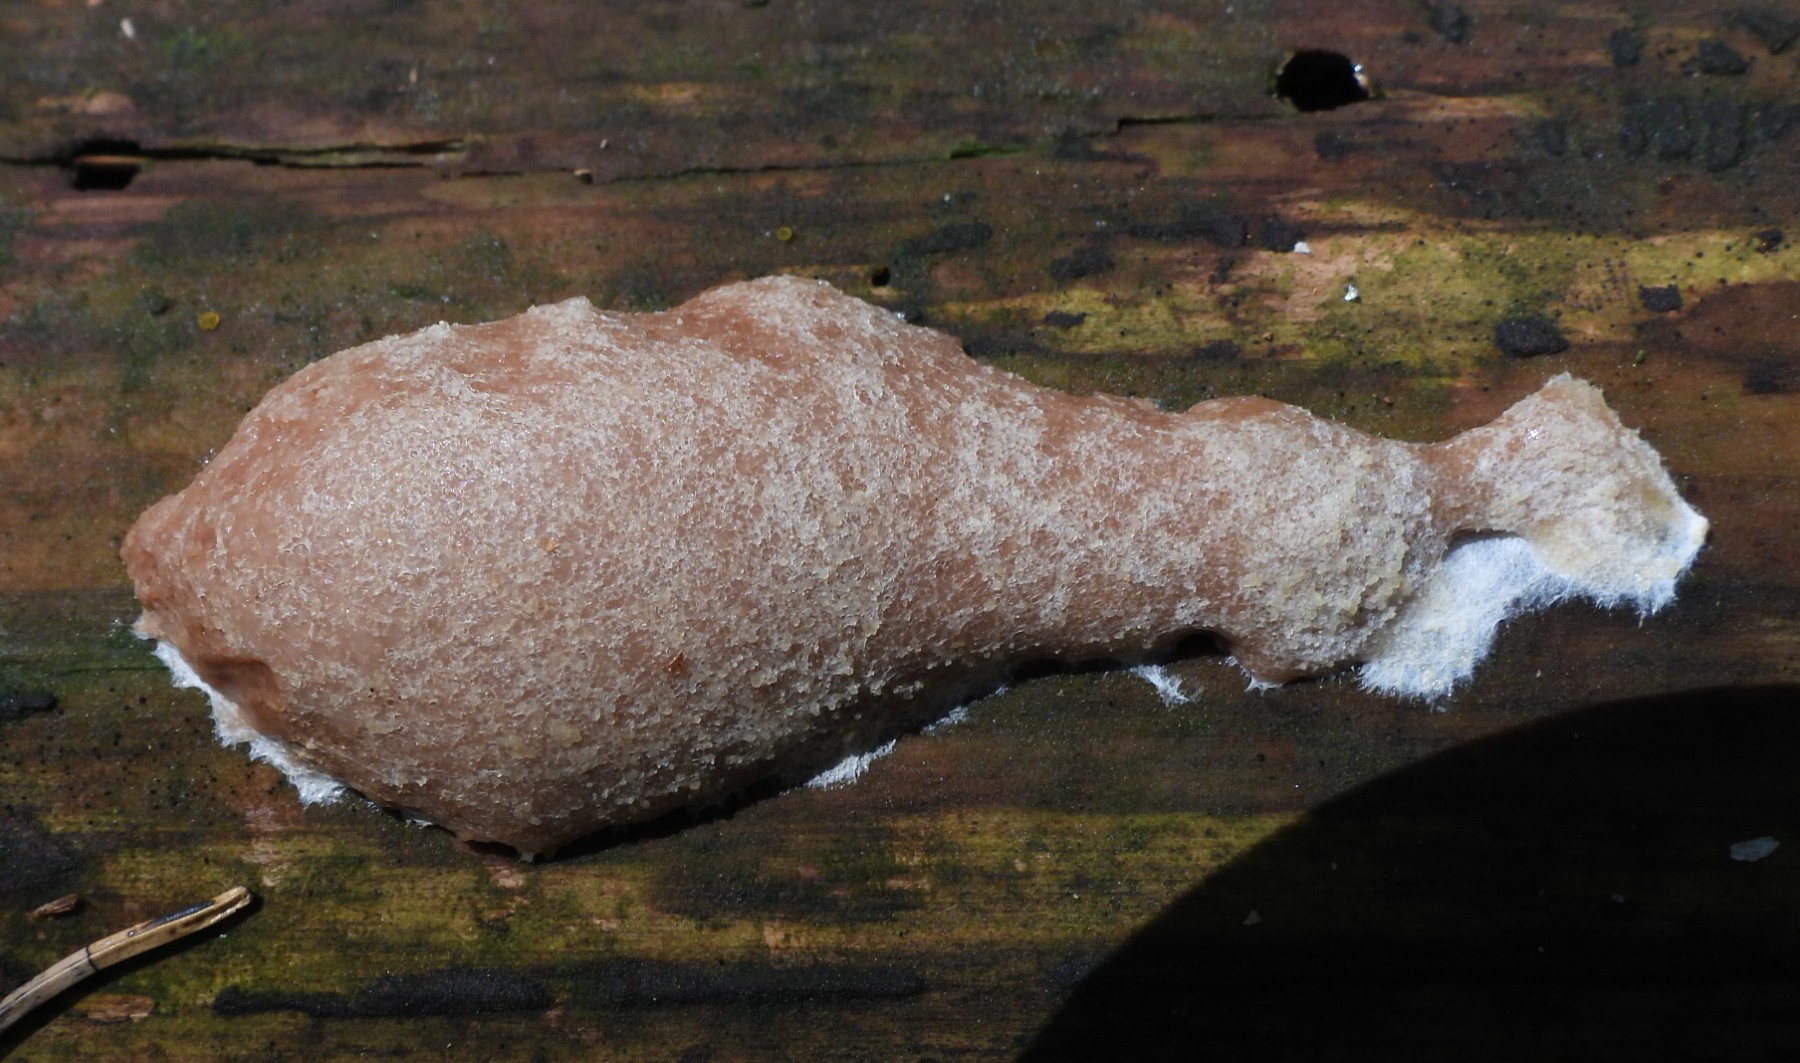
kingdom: Protozoa
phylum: Mycetozoa
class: Myxomycetes
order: Cribrariales
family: Tubiferaceae
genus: Reticularia
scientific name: Reticularia
